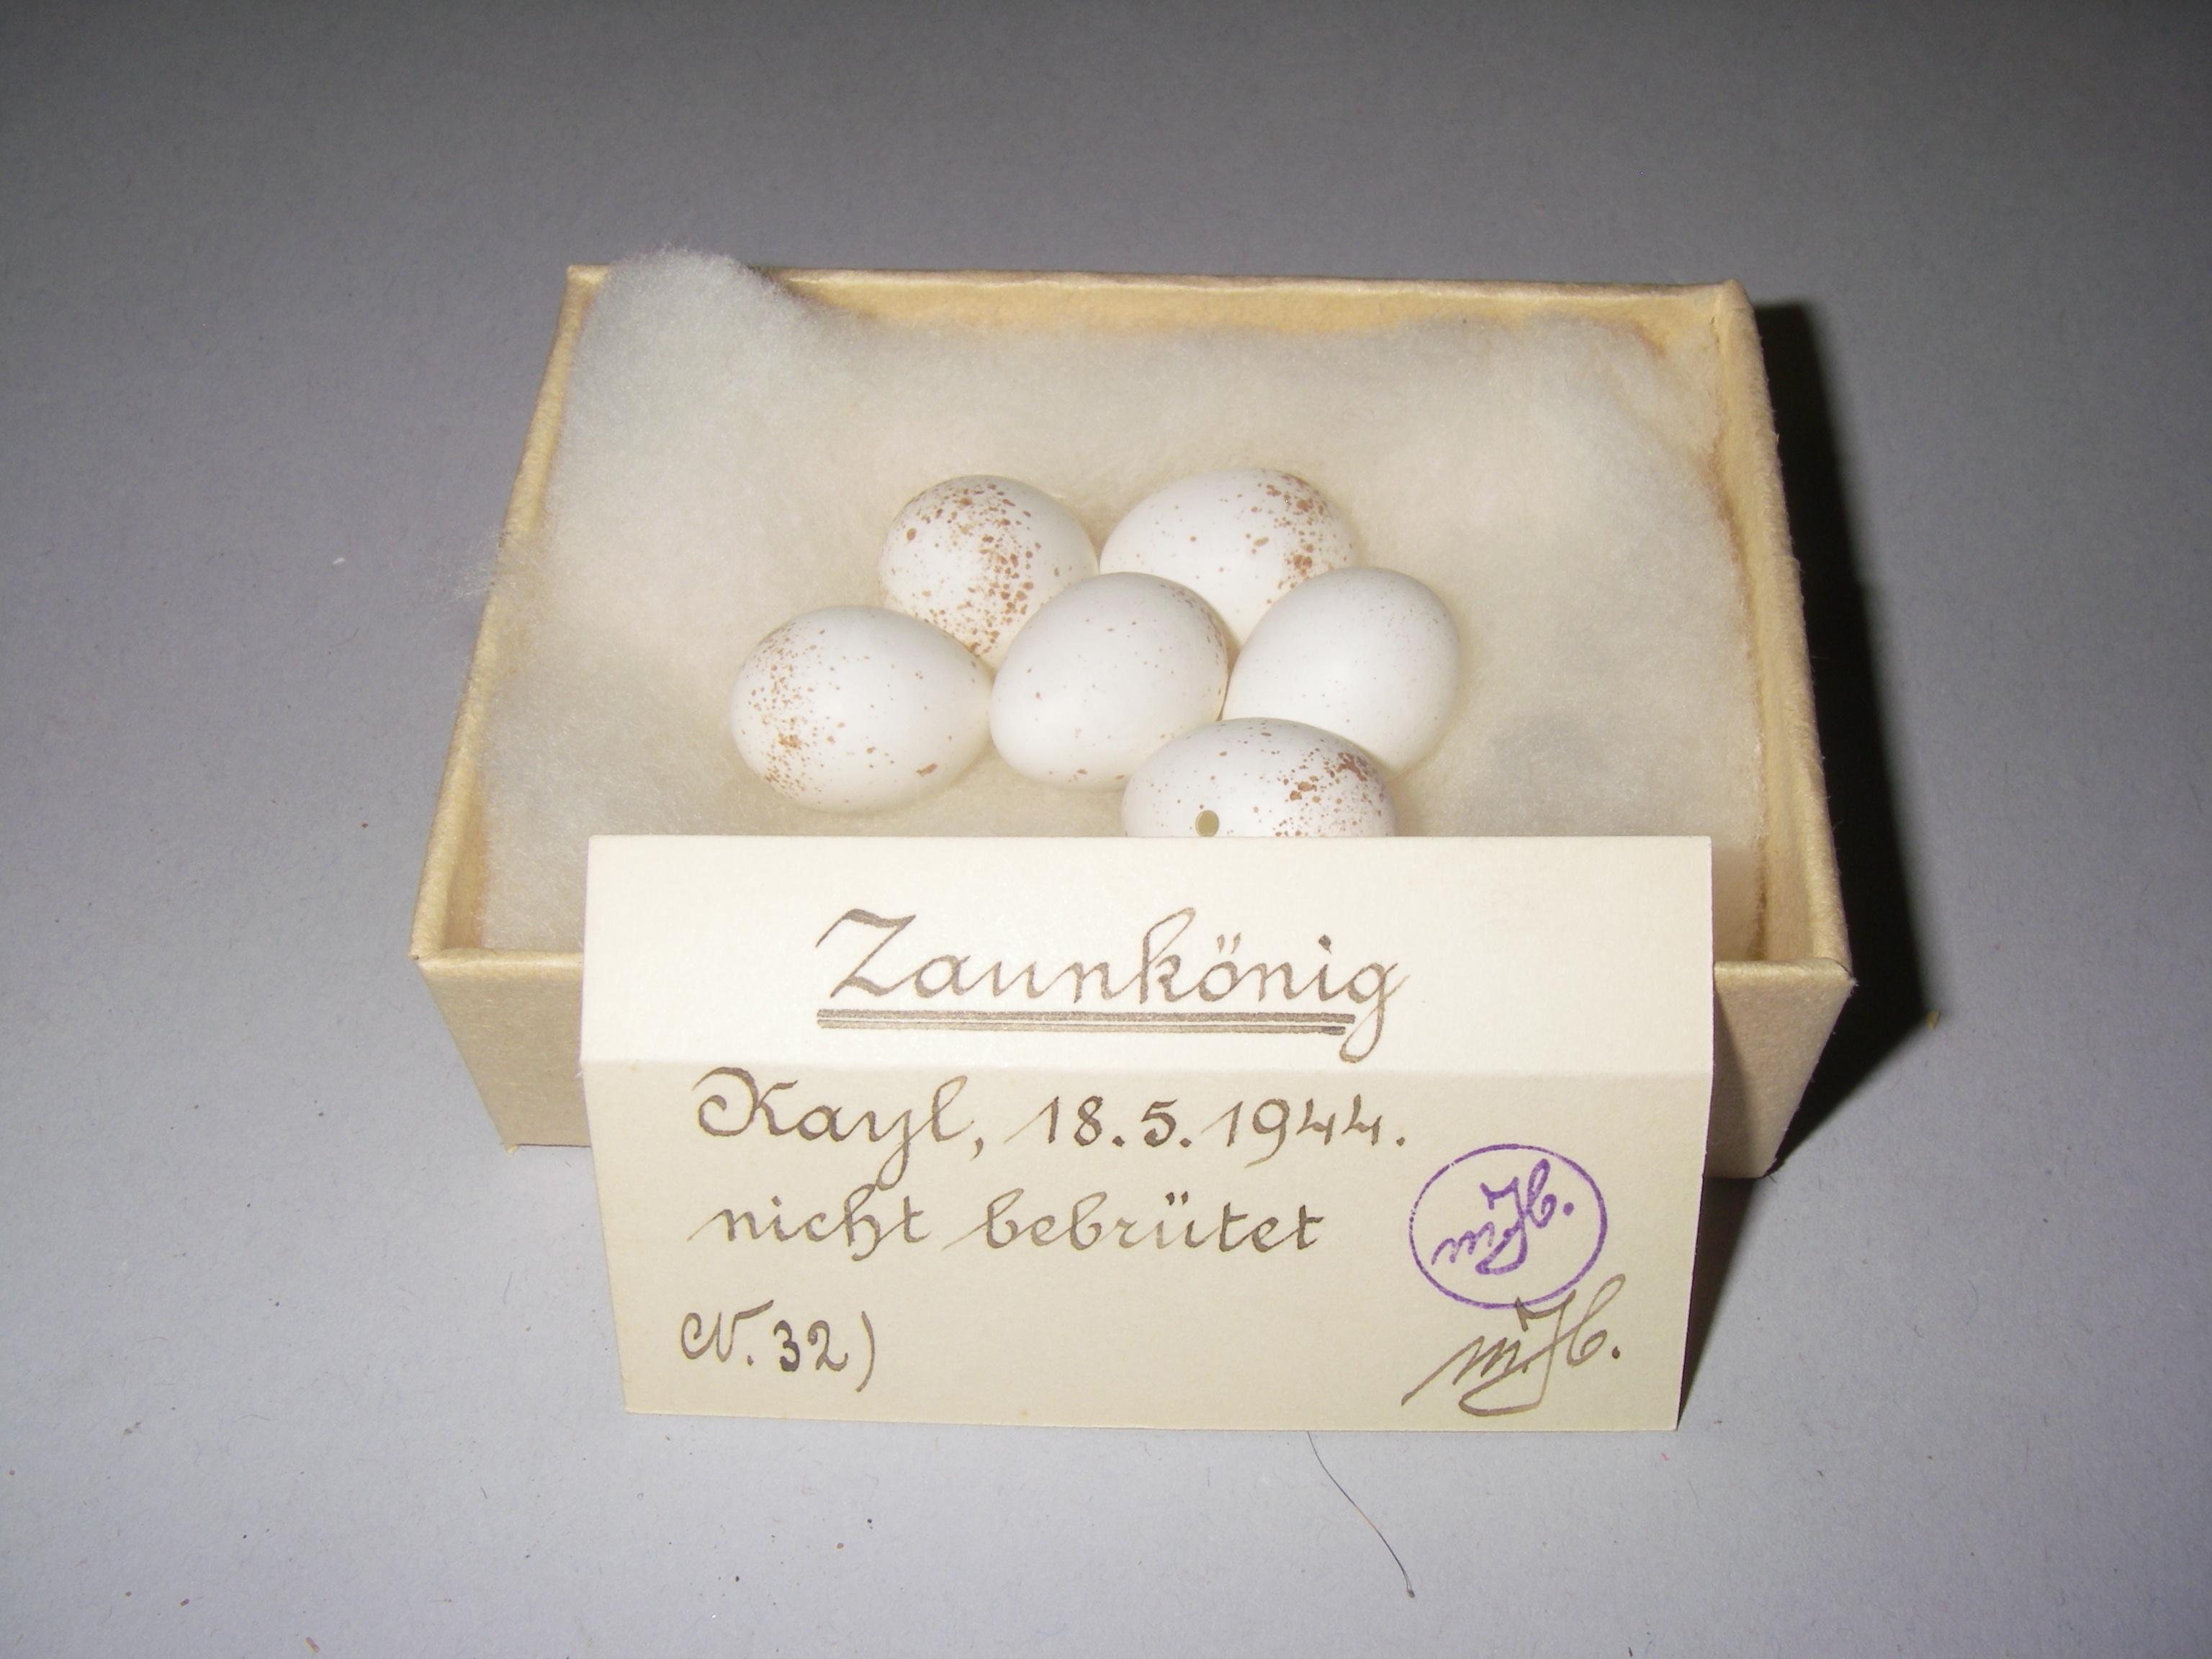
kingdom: Animalia
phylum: Chordata
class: Aves
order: Passeriformes
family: Troglodytidae
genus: Troglodytes
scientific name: Troglodytes troglodytes
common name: Eurasian wren
